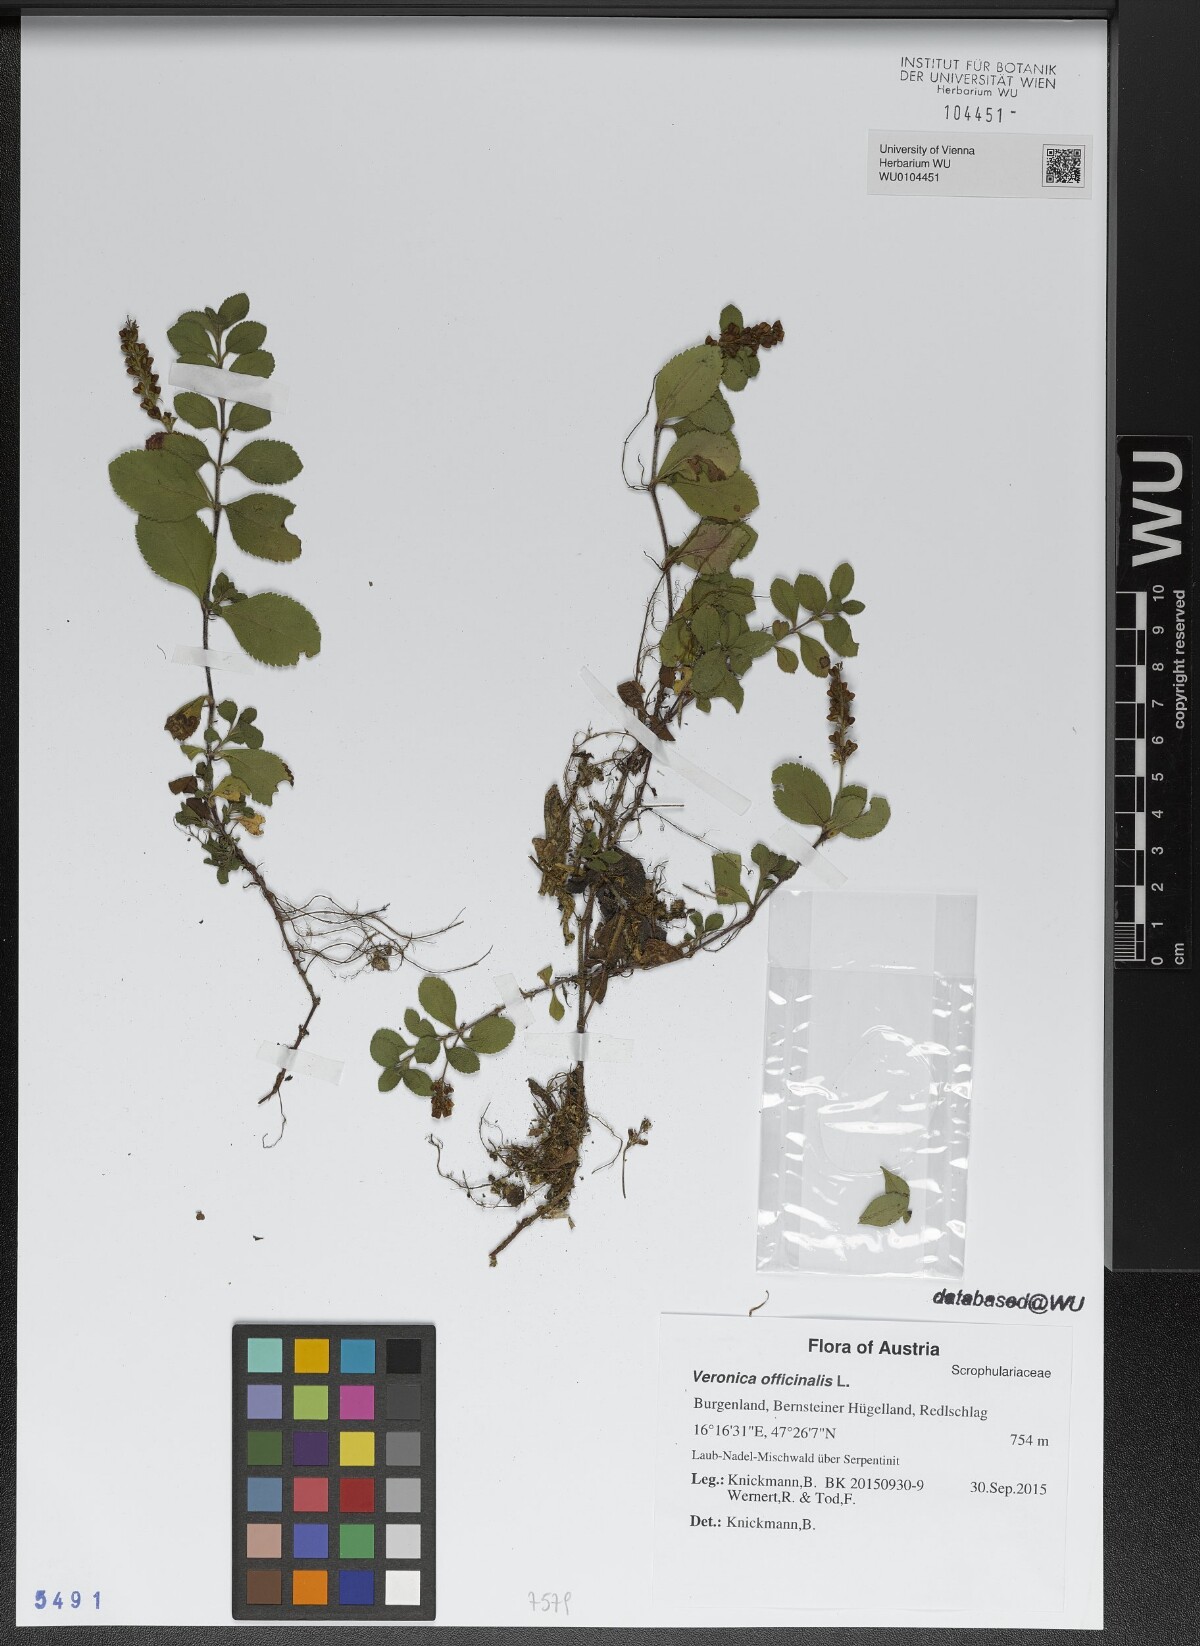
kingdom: Plantae
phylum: Tracheophyta
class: Magnoliopsida
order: Lamiales
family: Plantaginaceae
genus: Veronica
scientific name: Veronica officinalis
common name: Common speedwell
